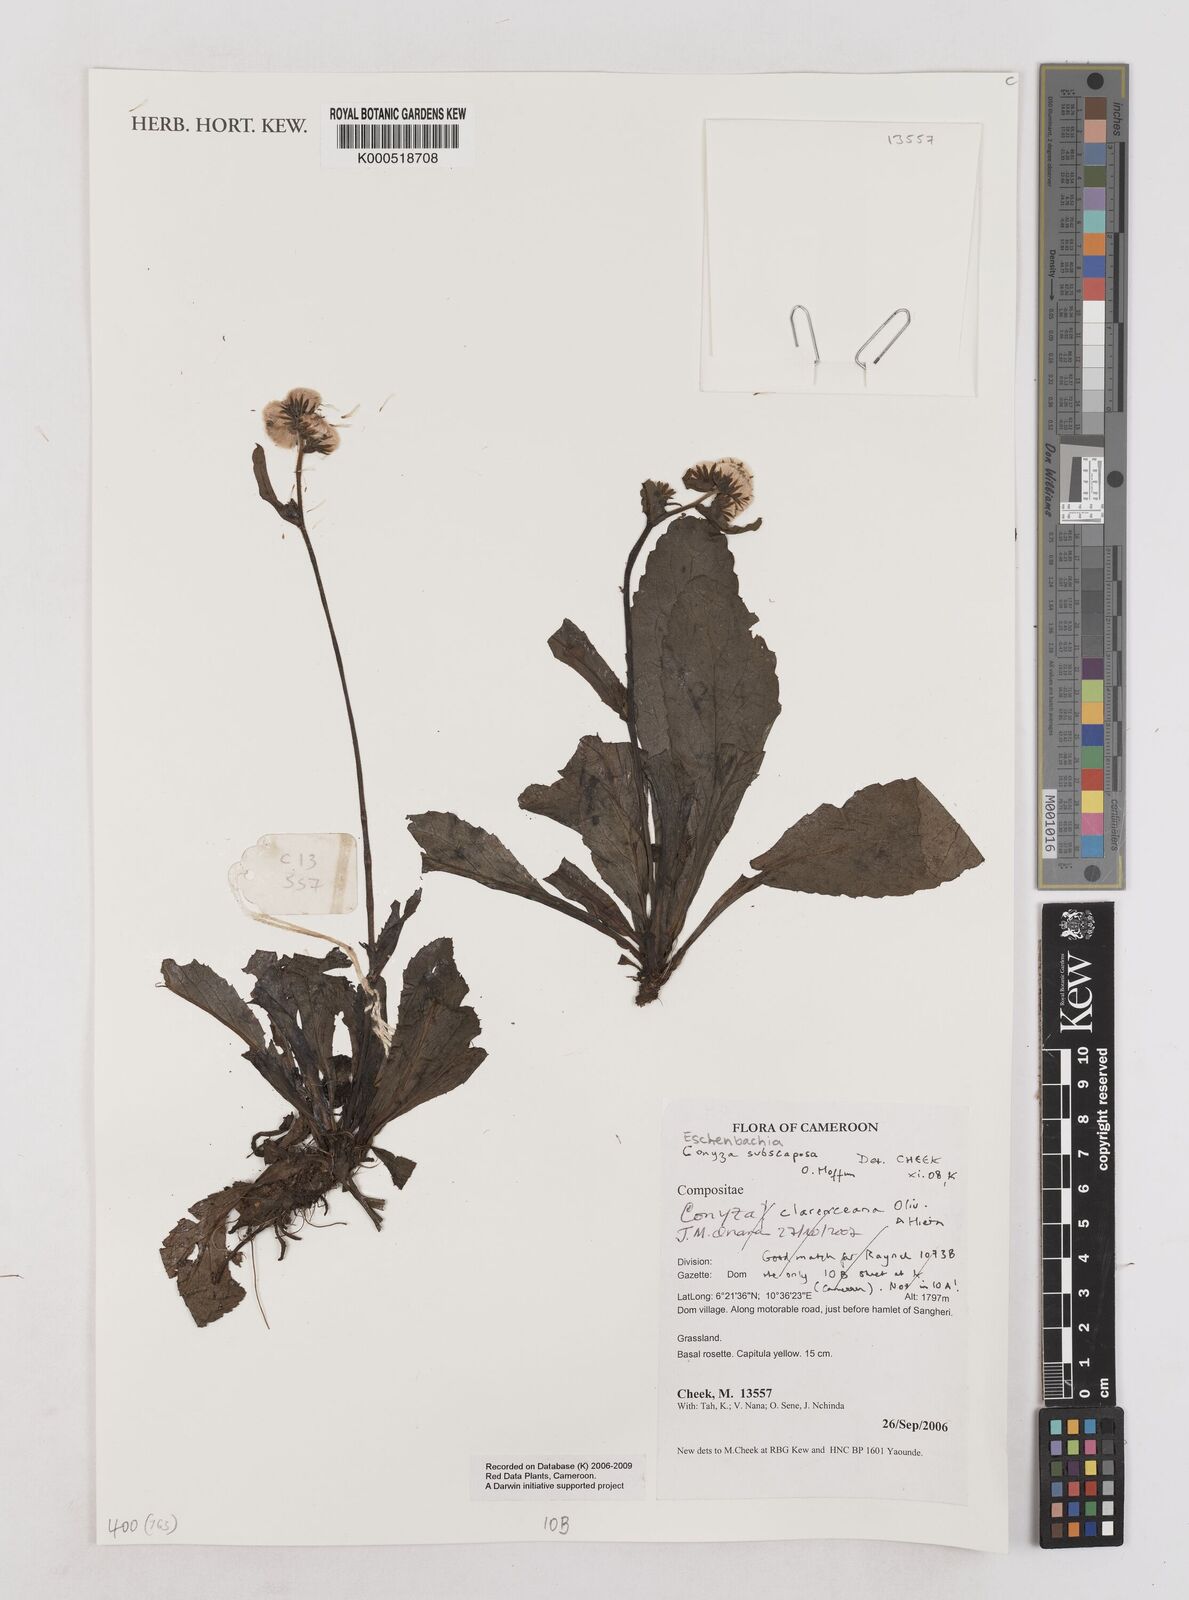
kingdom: Plantae
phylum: Tracheophyta
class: Magnoliopsida
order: Asterales
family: Asteraceae
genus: Eschenbachia
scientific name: Eschenbachia subscaposa
